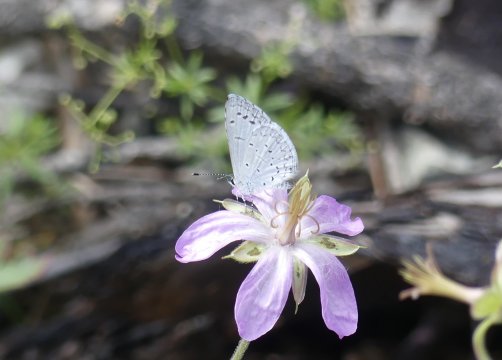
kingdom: Animalia
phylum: Arthropoda
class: Insecta
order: Lepidoptera
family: Lycaenidae
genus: Celastrina
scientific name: Celastrina ladon
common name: Echo Azure
